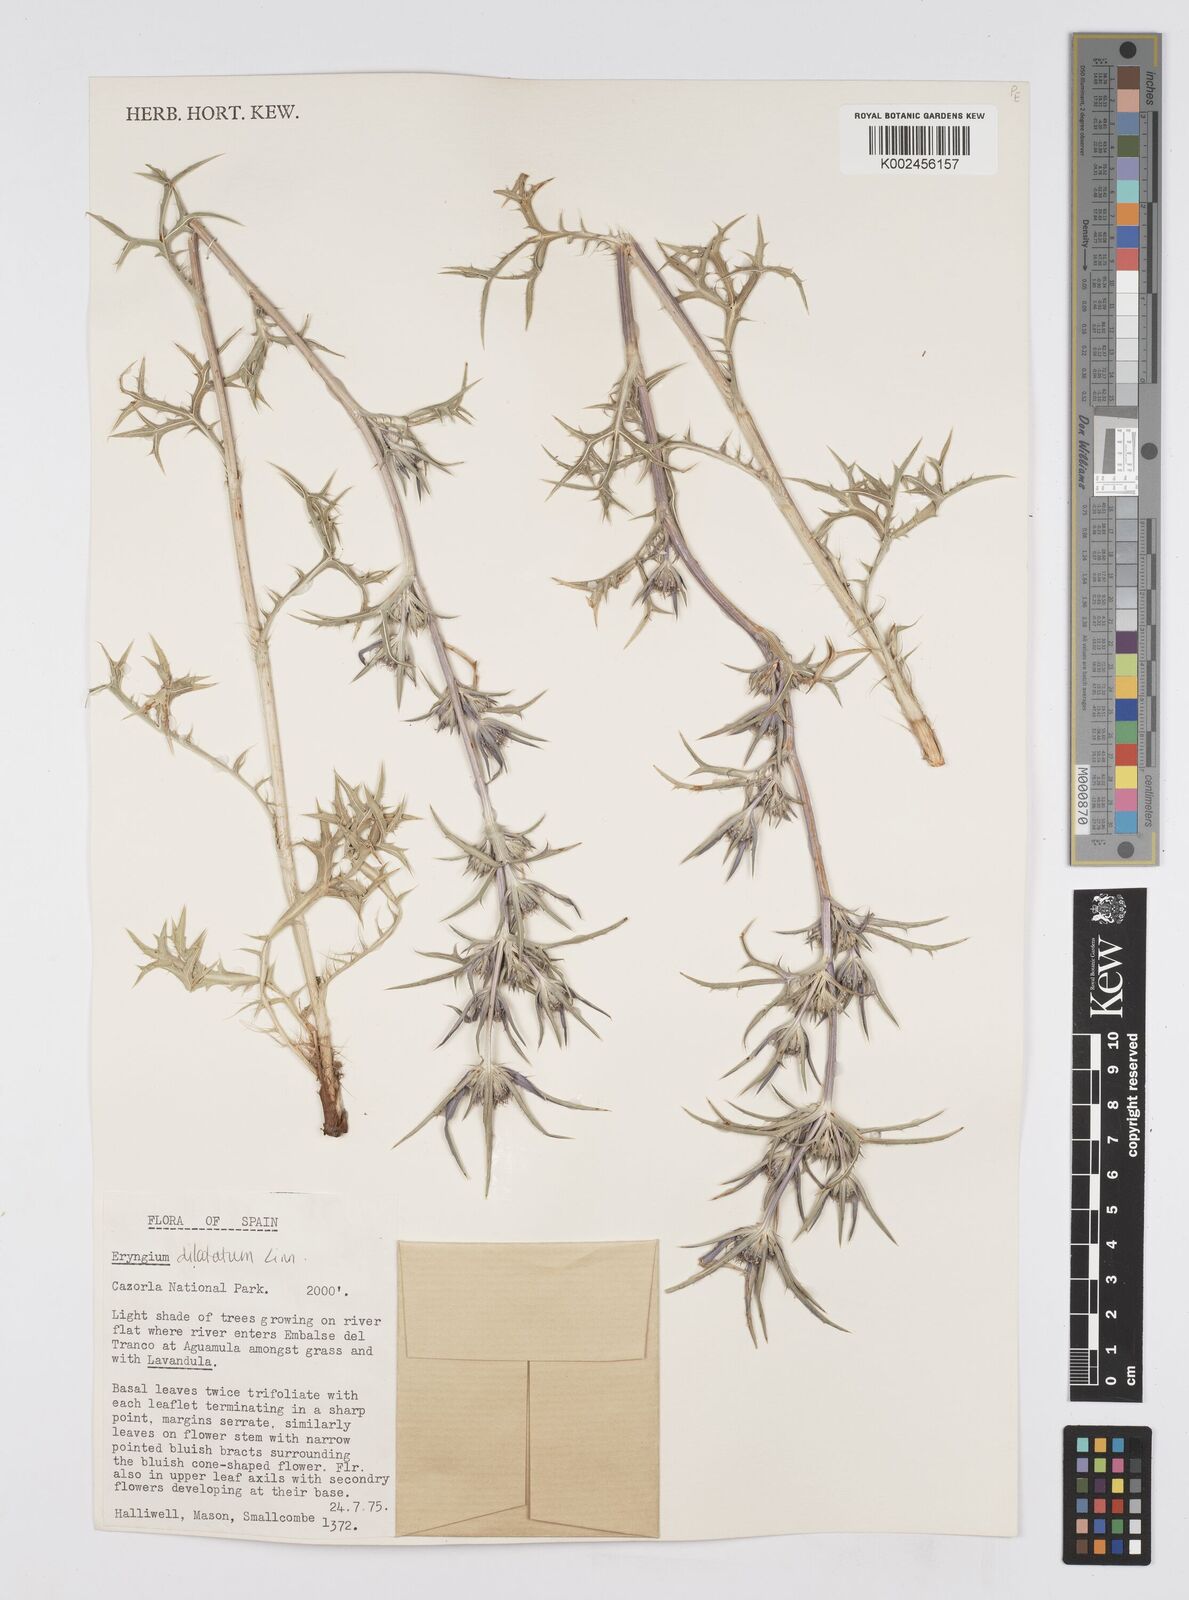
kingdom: Plantae
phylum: Tracheophyta
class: Magnoliopsida
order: Apiales
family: Apiaceae
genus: Eryngium
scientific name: Eryngium dilatatum
